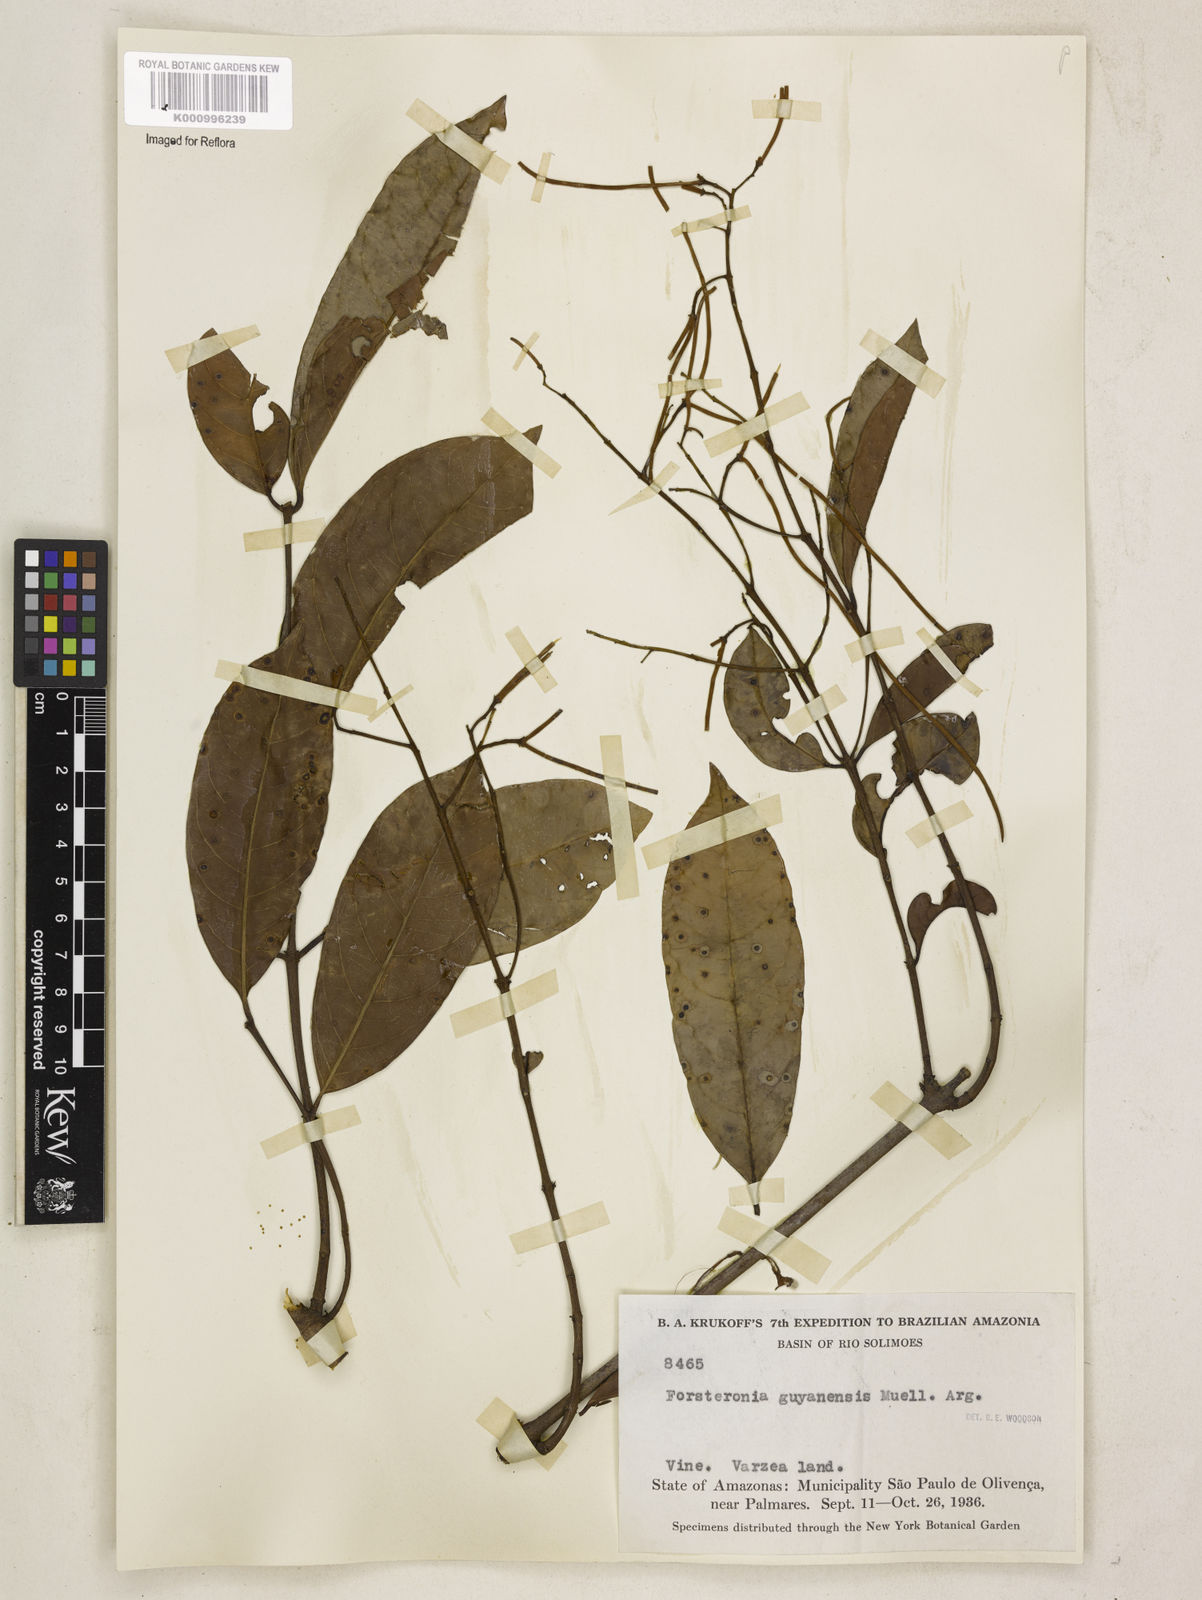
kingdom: Plantae
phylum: Tracheophyta
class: Magnoliopsida
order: Gentianales
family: Apocynaceae
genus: Forsteronia
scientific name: Forsteronia guyanensis
